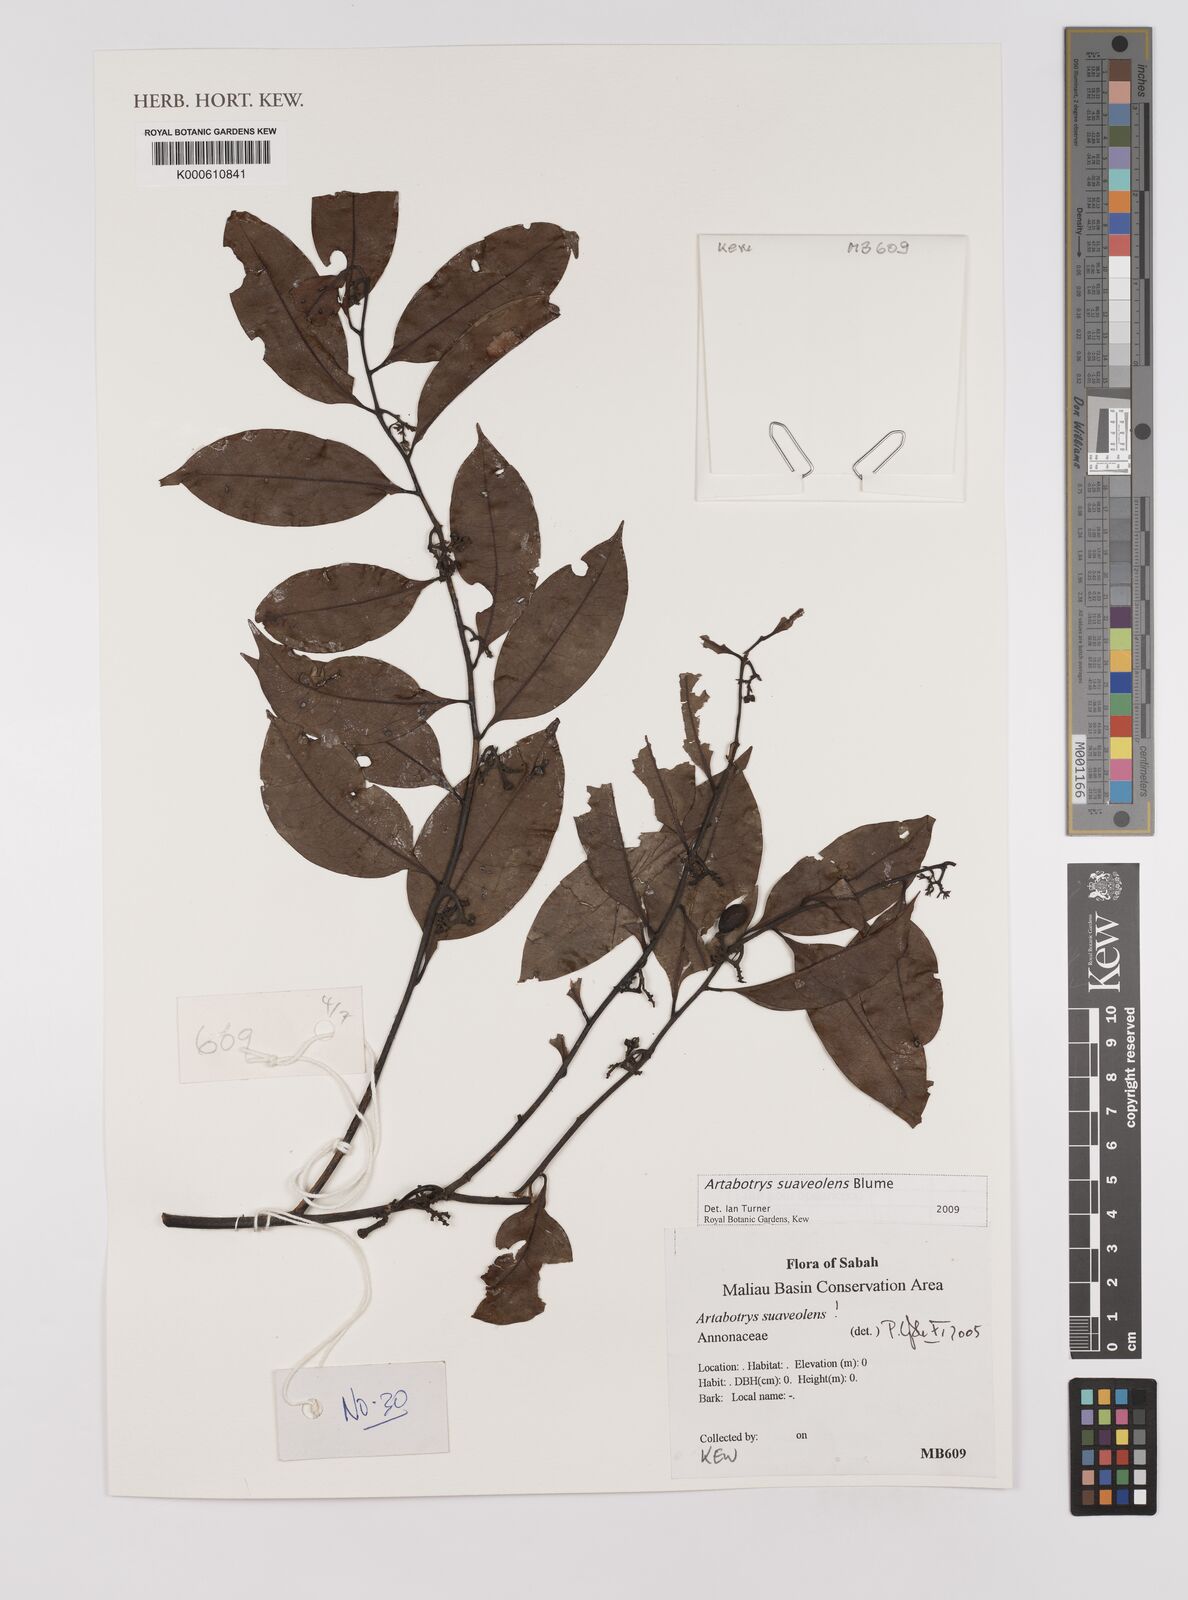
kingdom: Plantae
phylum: Tracheophyta
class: Magnoliopsida
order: Magnoliales
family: Annonaceae
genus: Artabotrys
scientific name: Artabotrys suaveolens
